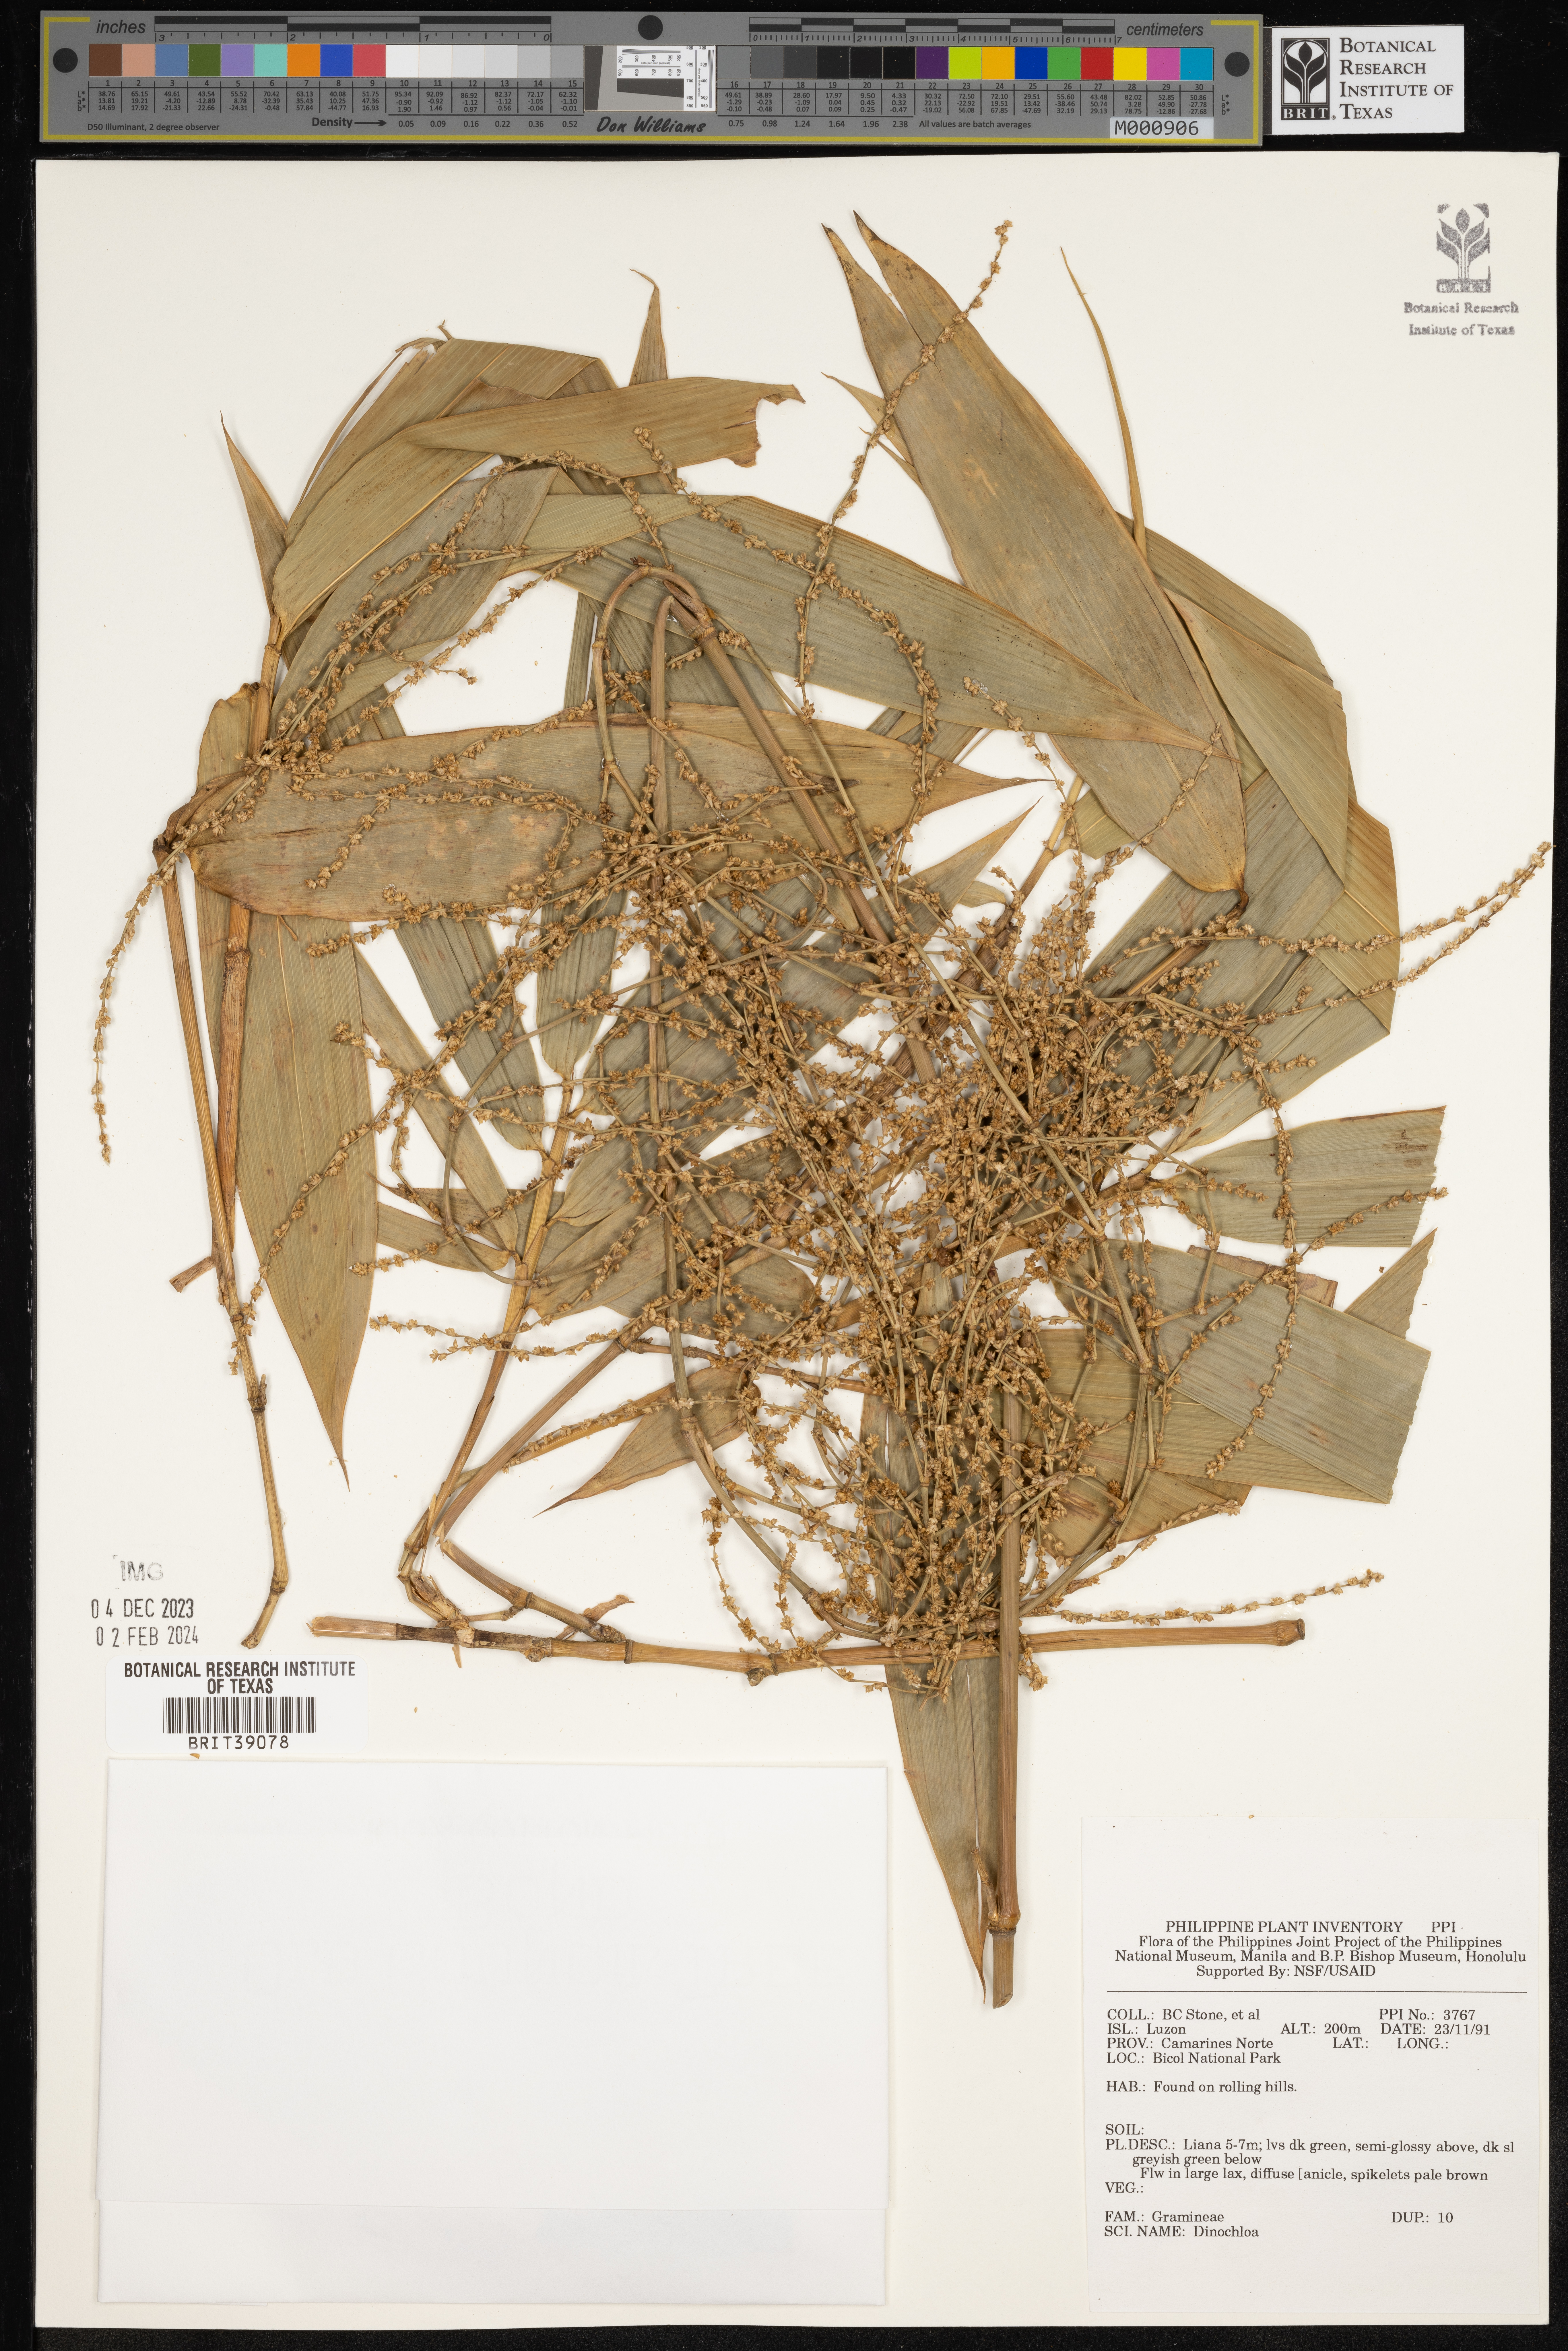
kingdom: Plantae
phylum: Tracheophyta
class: Liliopsida
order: Poales
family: Poaceae
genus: Dinochloa
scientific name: Dinochloa
